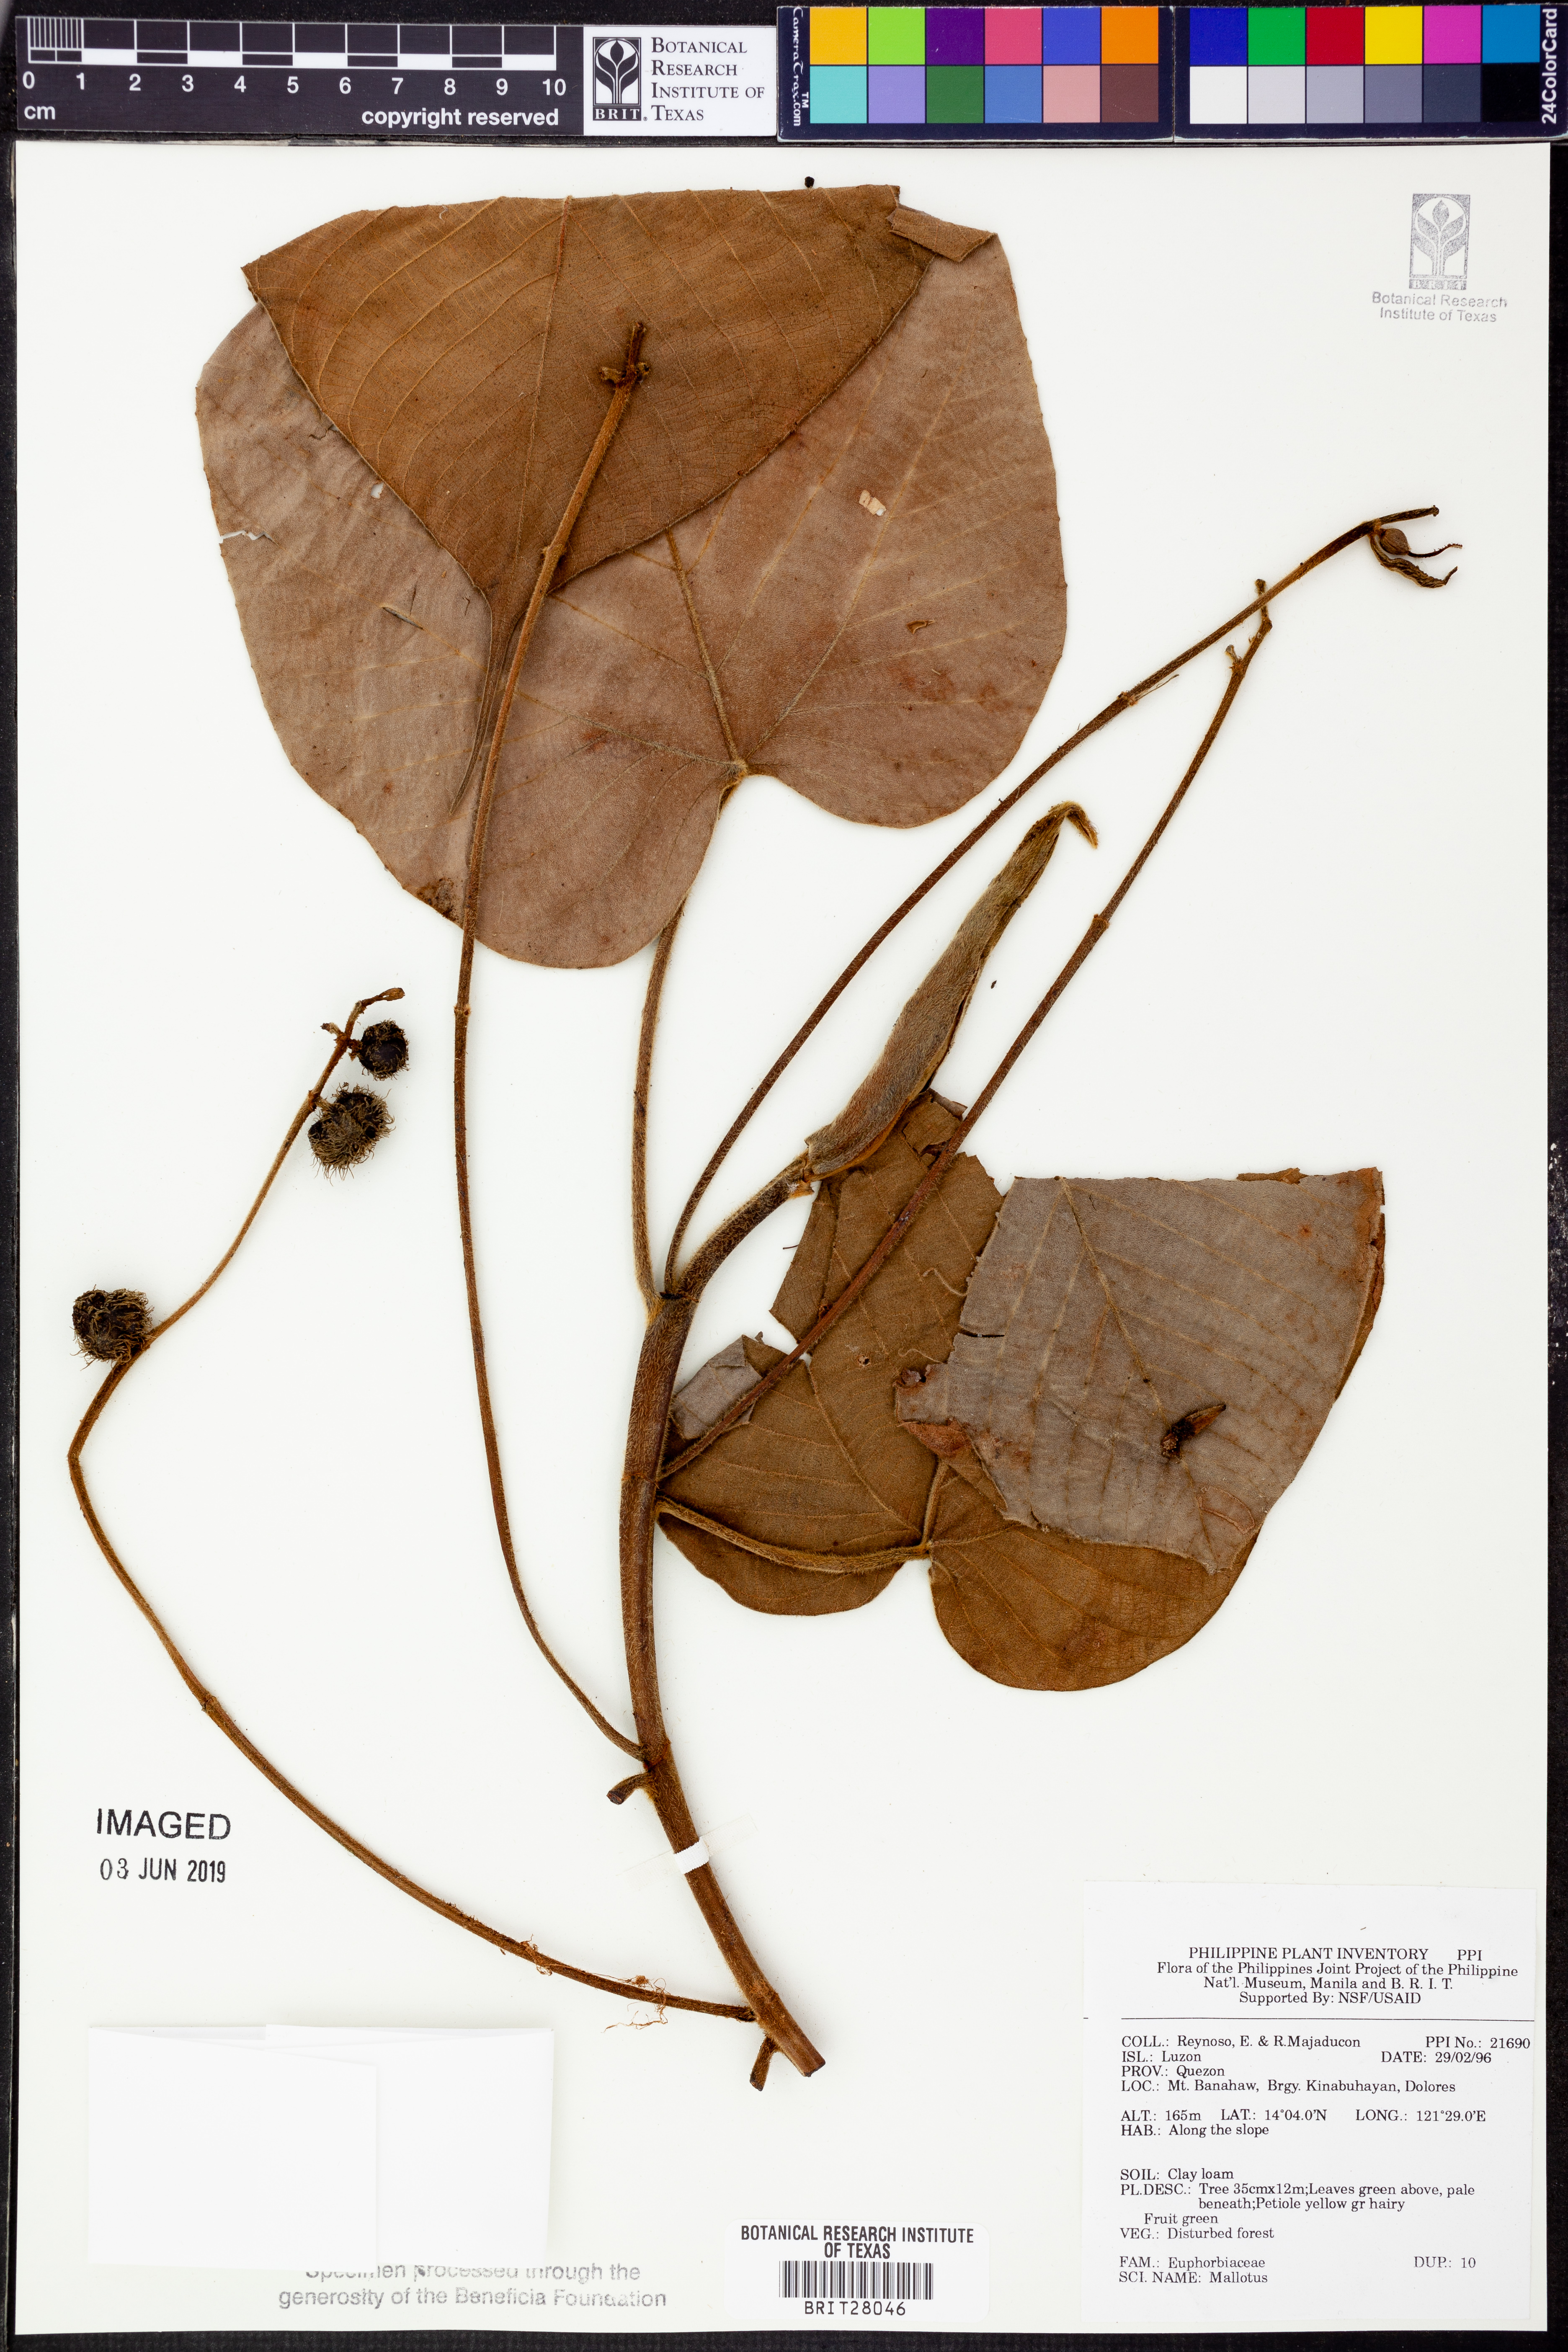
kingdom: Plantae
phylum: Tracheophyta
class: Magnoliopsida
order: Malpighiales
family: Euphorbiaceae
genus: Mallotus
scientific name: Mallotus
